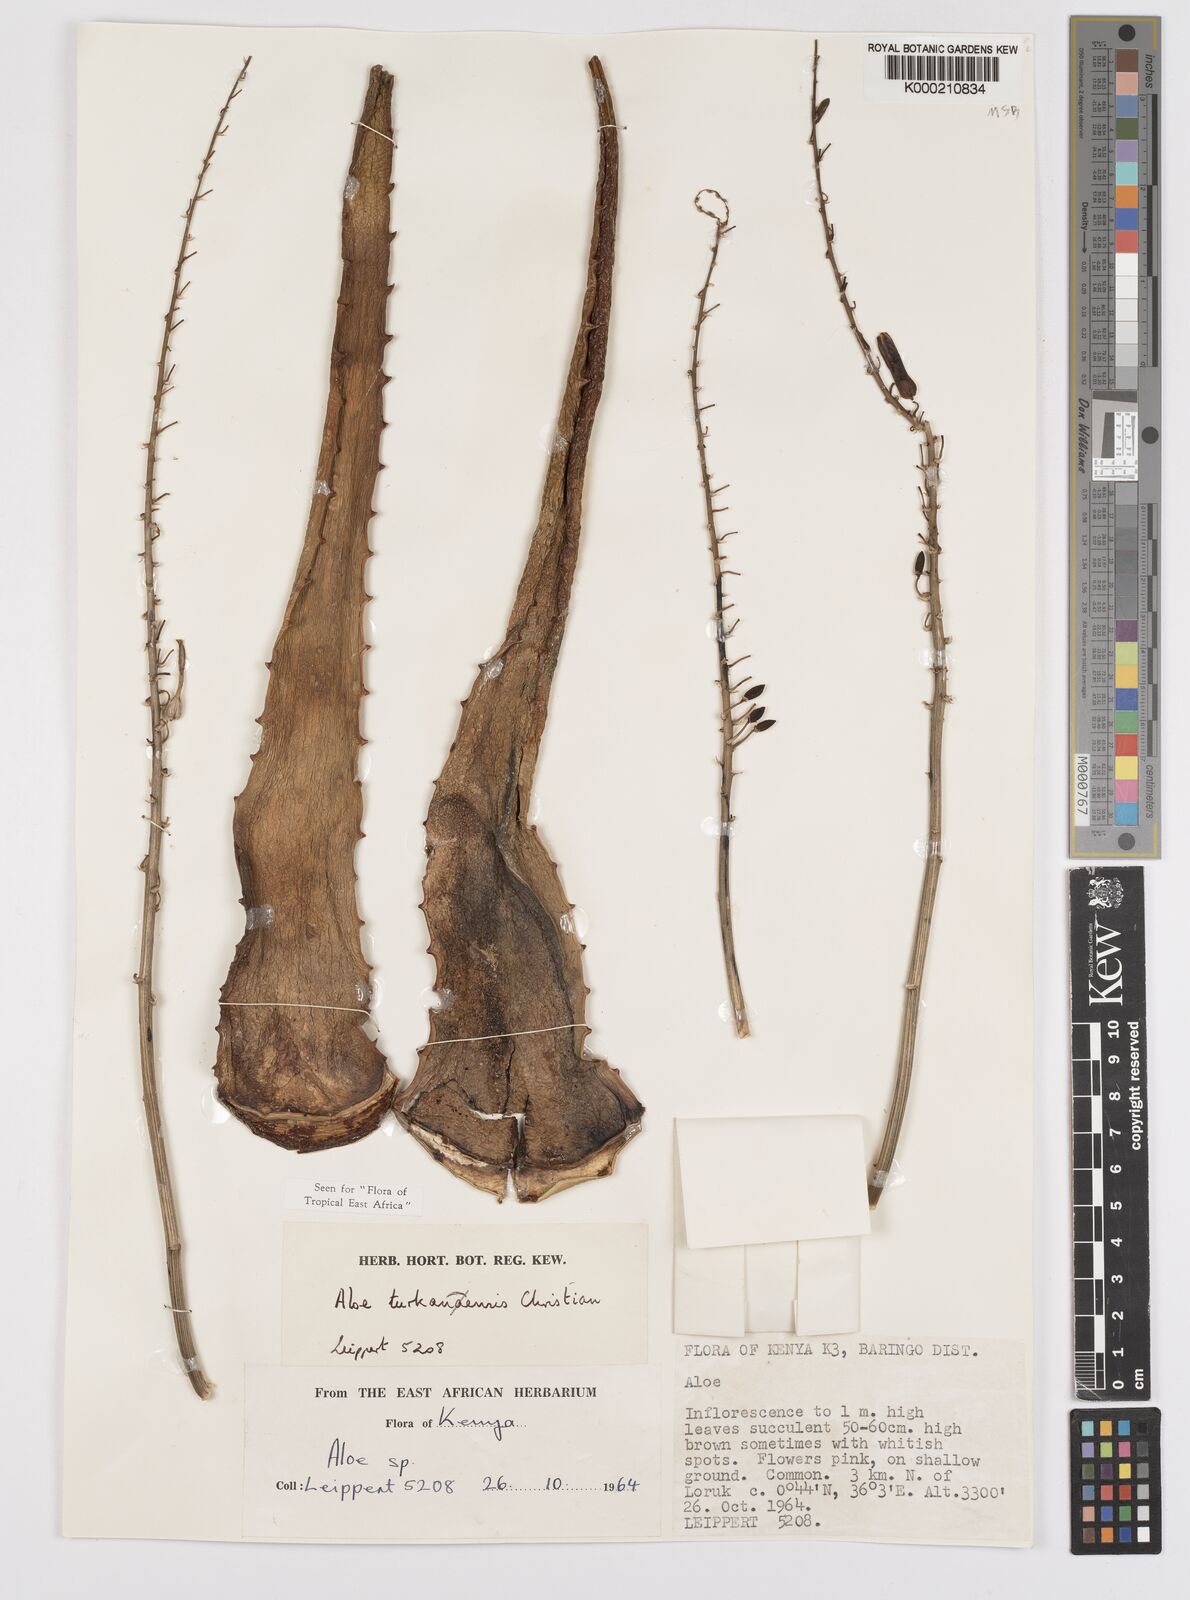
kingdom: Plantae
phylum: Tracheophyta
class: Liliopsida
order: Asparagales
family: Asphodelaceae
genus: Aloe
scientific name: Aloe turkanensis
